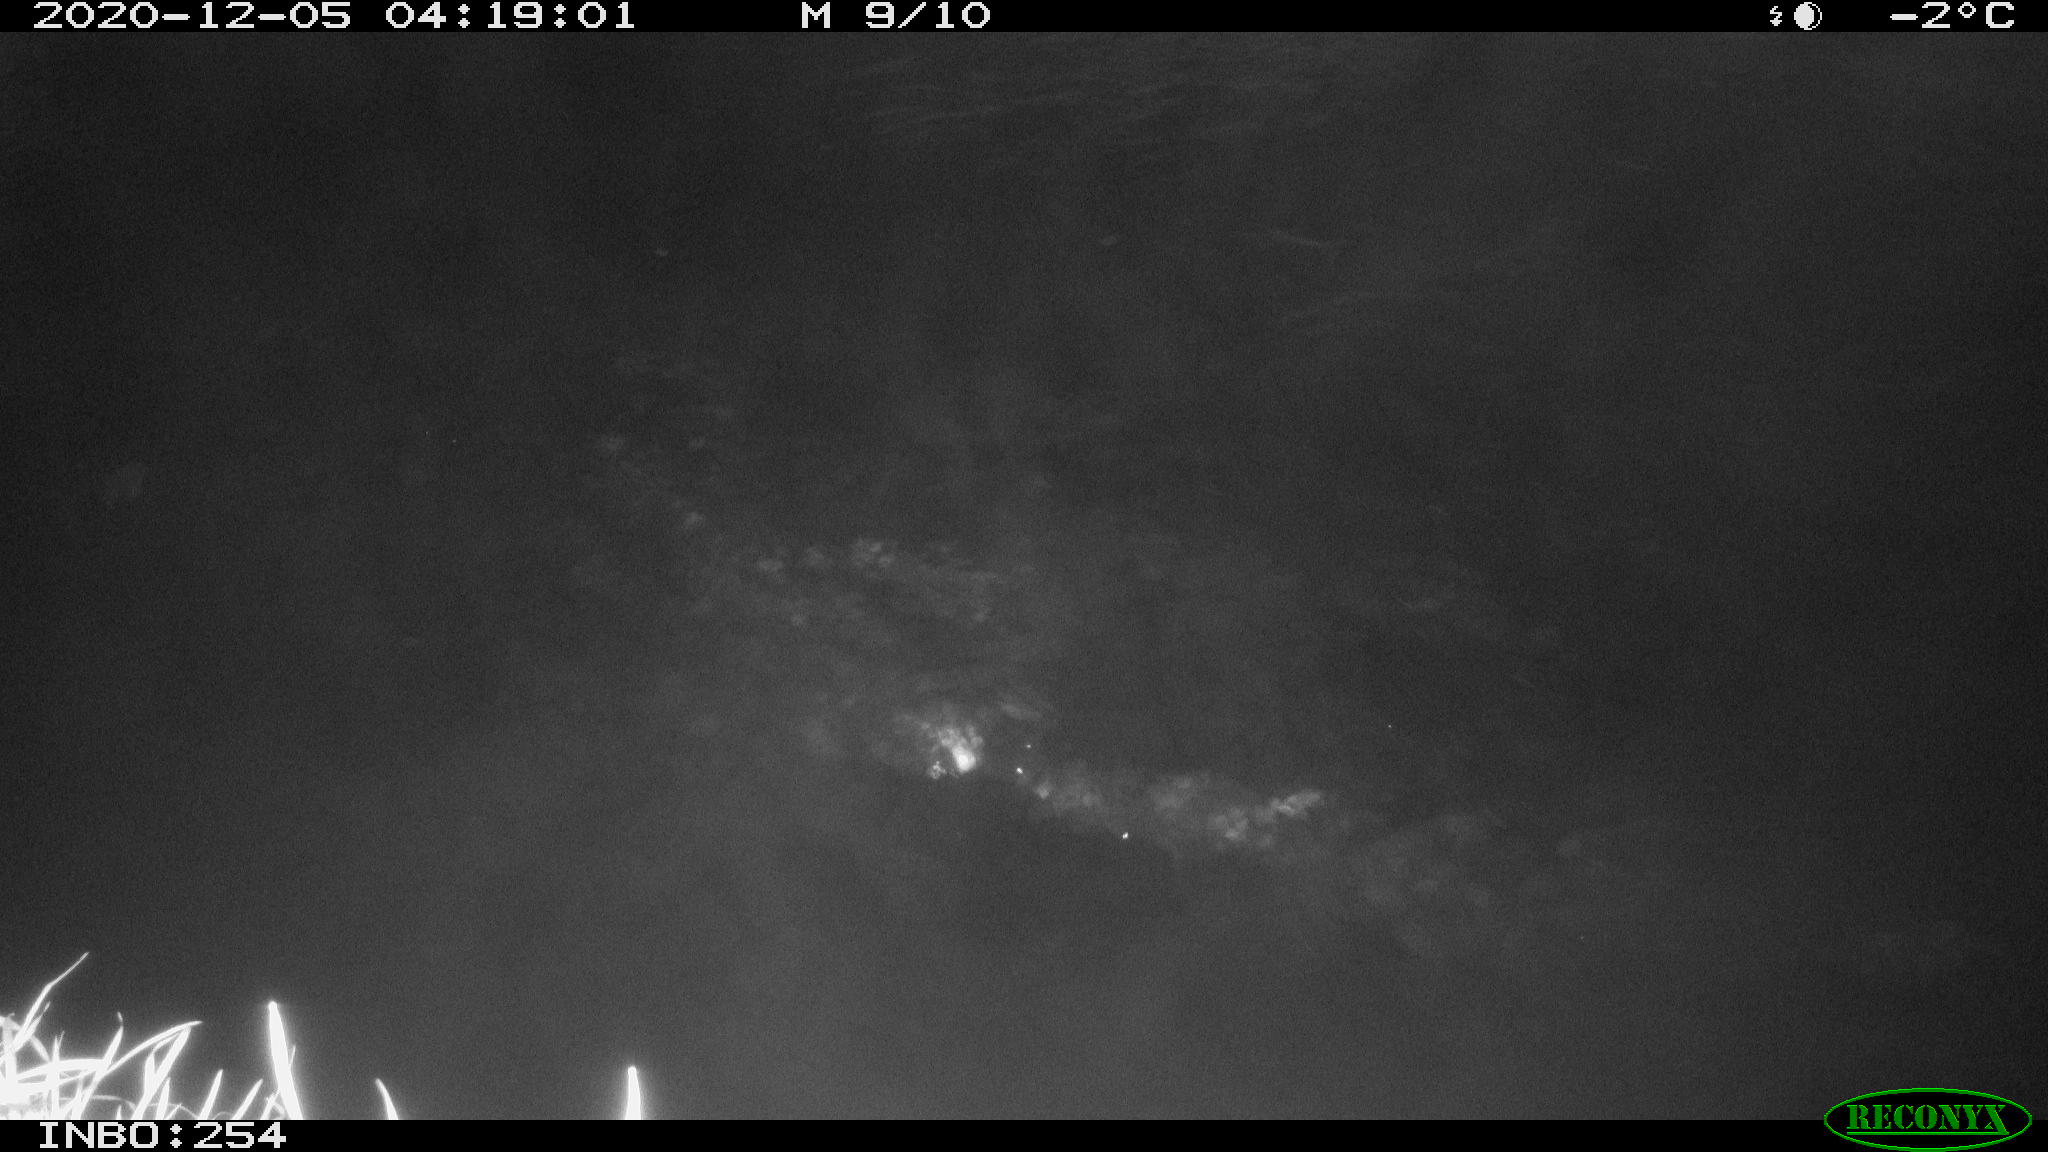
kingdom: Animalia
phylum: Chordata
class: Aves
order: Anseriformes
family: Anatidae
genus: Anas
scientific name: Anas platyrhynchos
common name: Mallard
